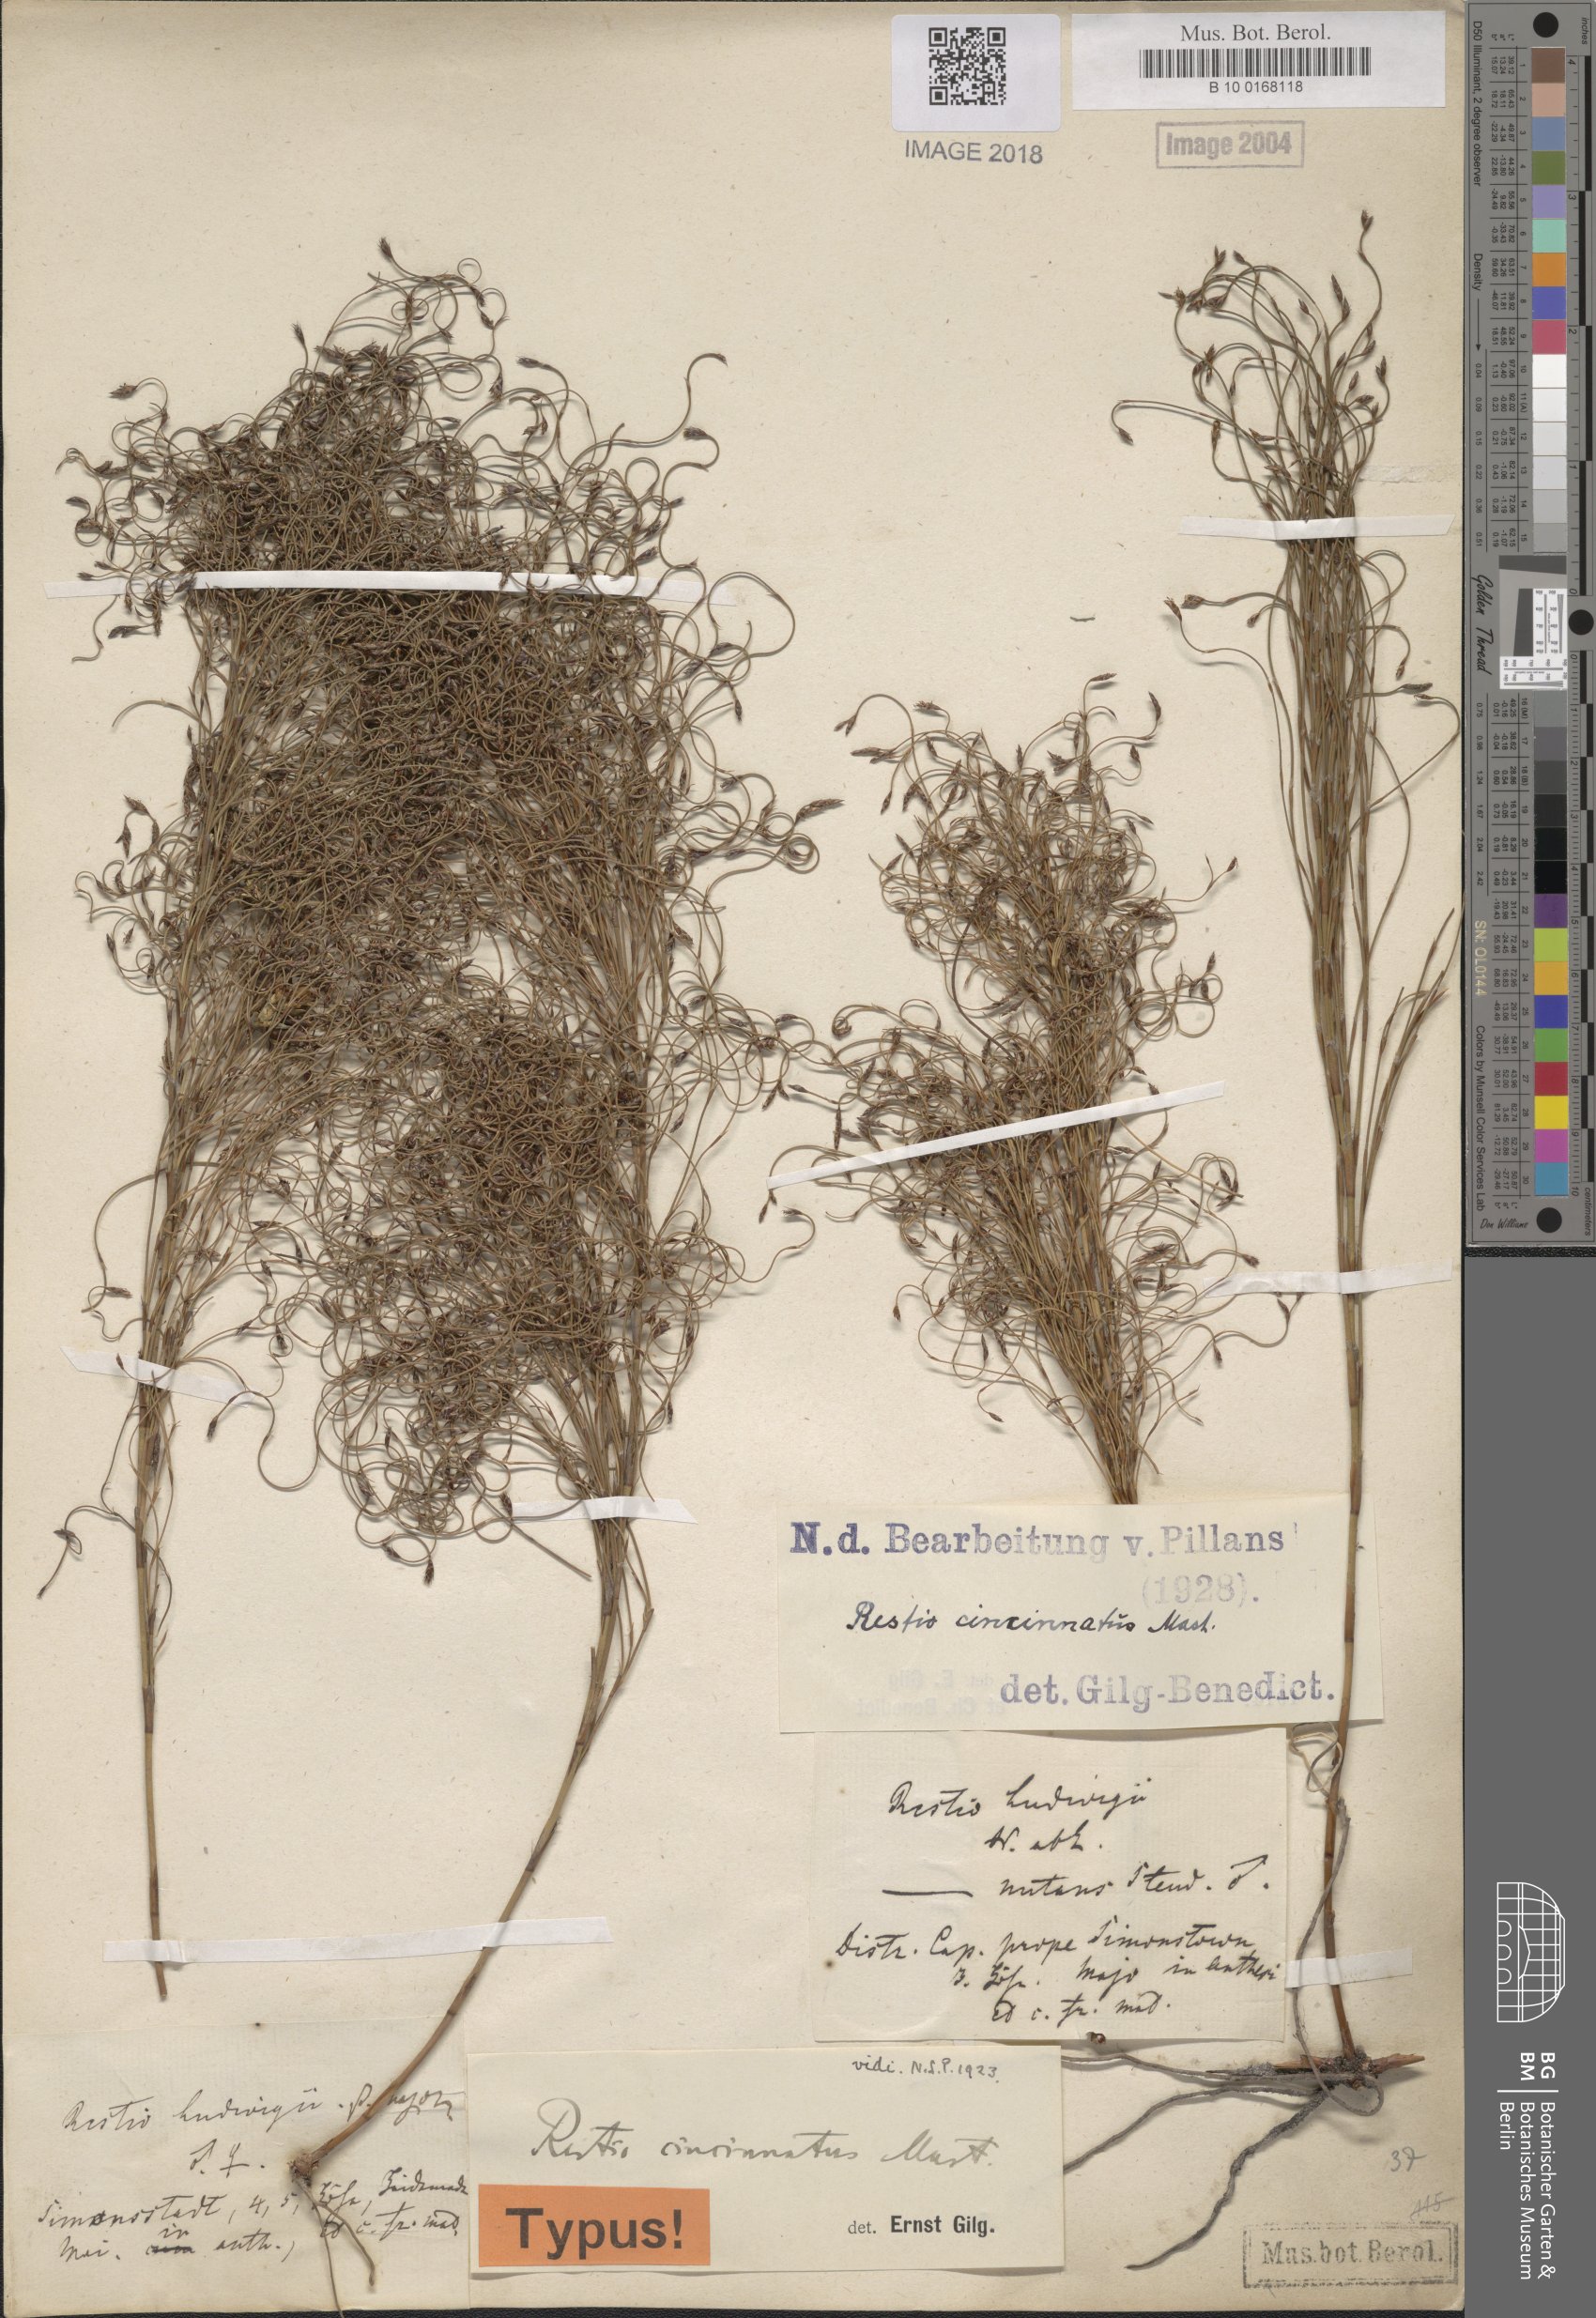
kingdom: Plantae
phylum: Tracheophyta
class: Liliopsida
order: Poales
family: Restionaceae
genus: Restio
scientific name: Restio cincinnatus
